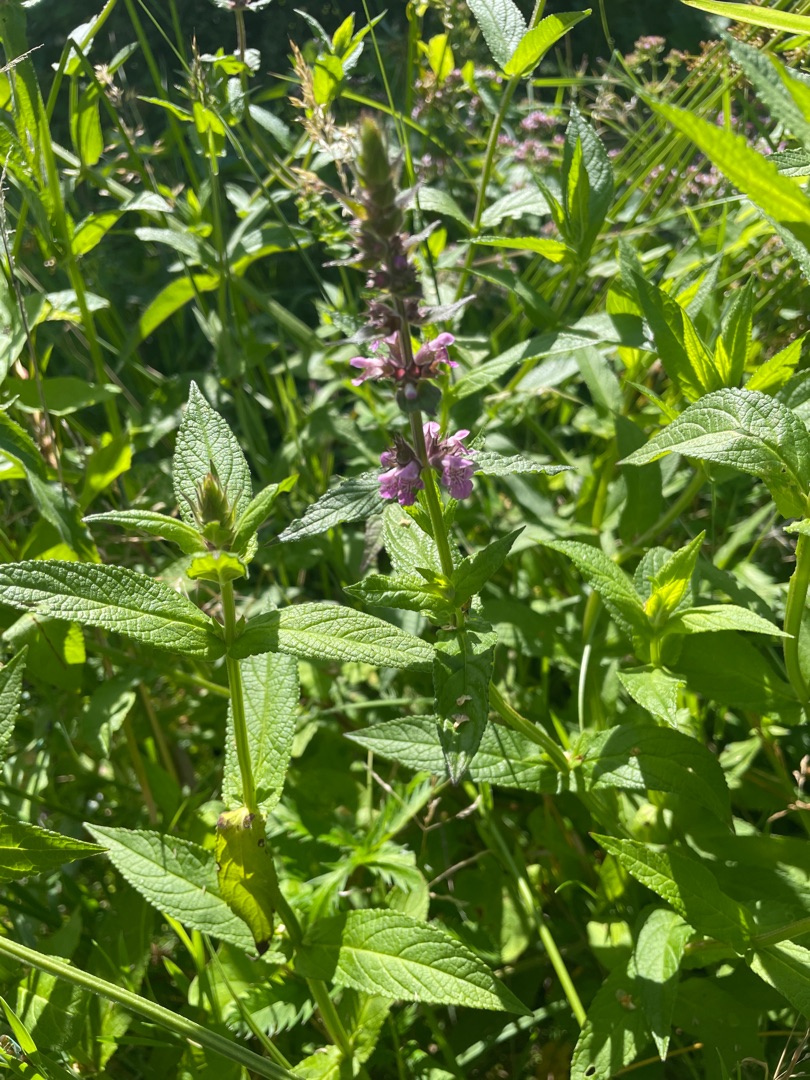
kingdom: Plantae
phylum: Tracheophyta
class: Magnoliopsida
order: Lamiales
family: Lamiaceae
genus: Stachys
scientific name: Stachys palustris
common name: Kær-galtetand
